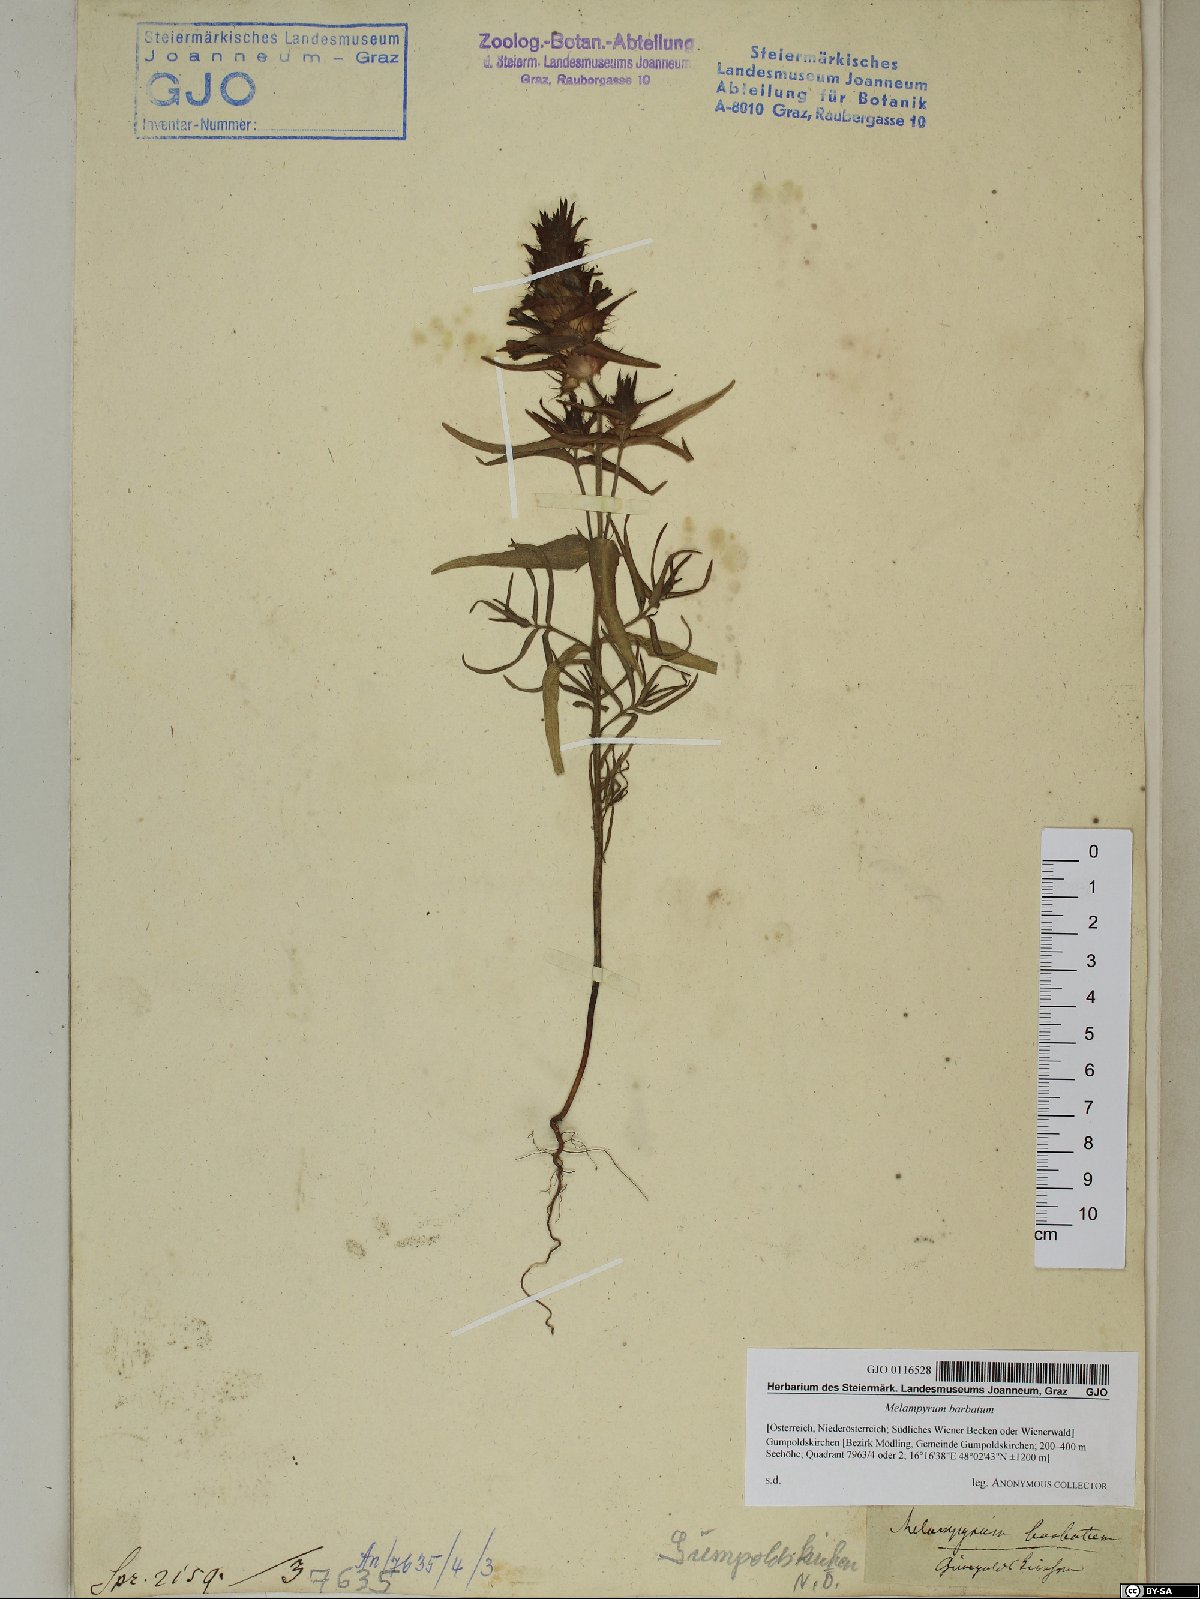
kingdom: Plantae
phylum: Tracheophyta
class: Magnoliopsida
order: Lamiales
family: Orobanchaceae
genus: Melampyrum
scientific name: Melampyrum barbatum
